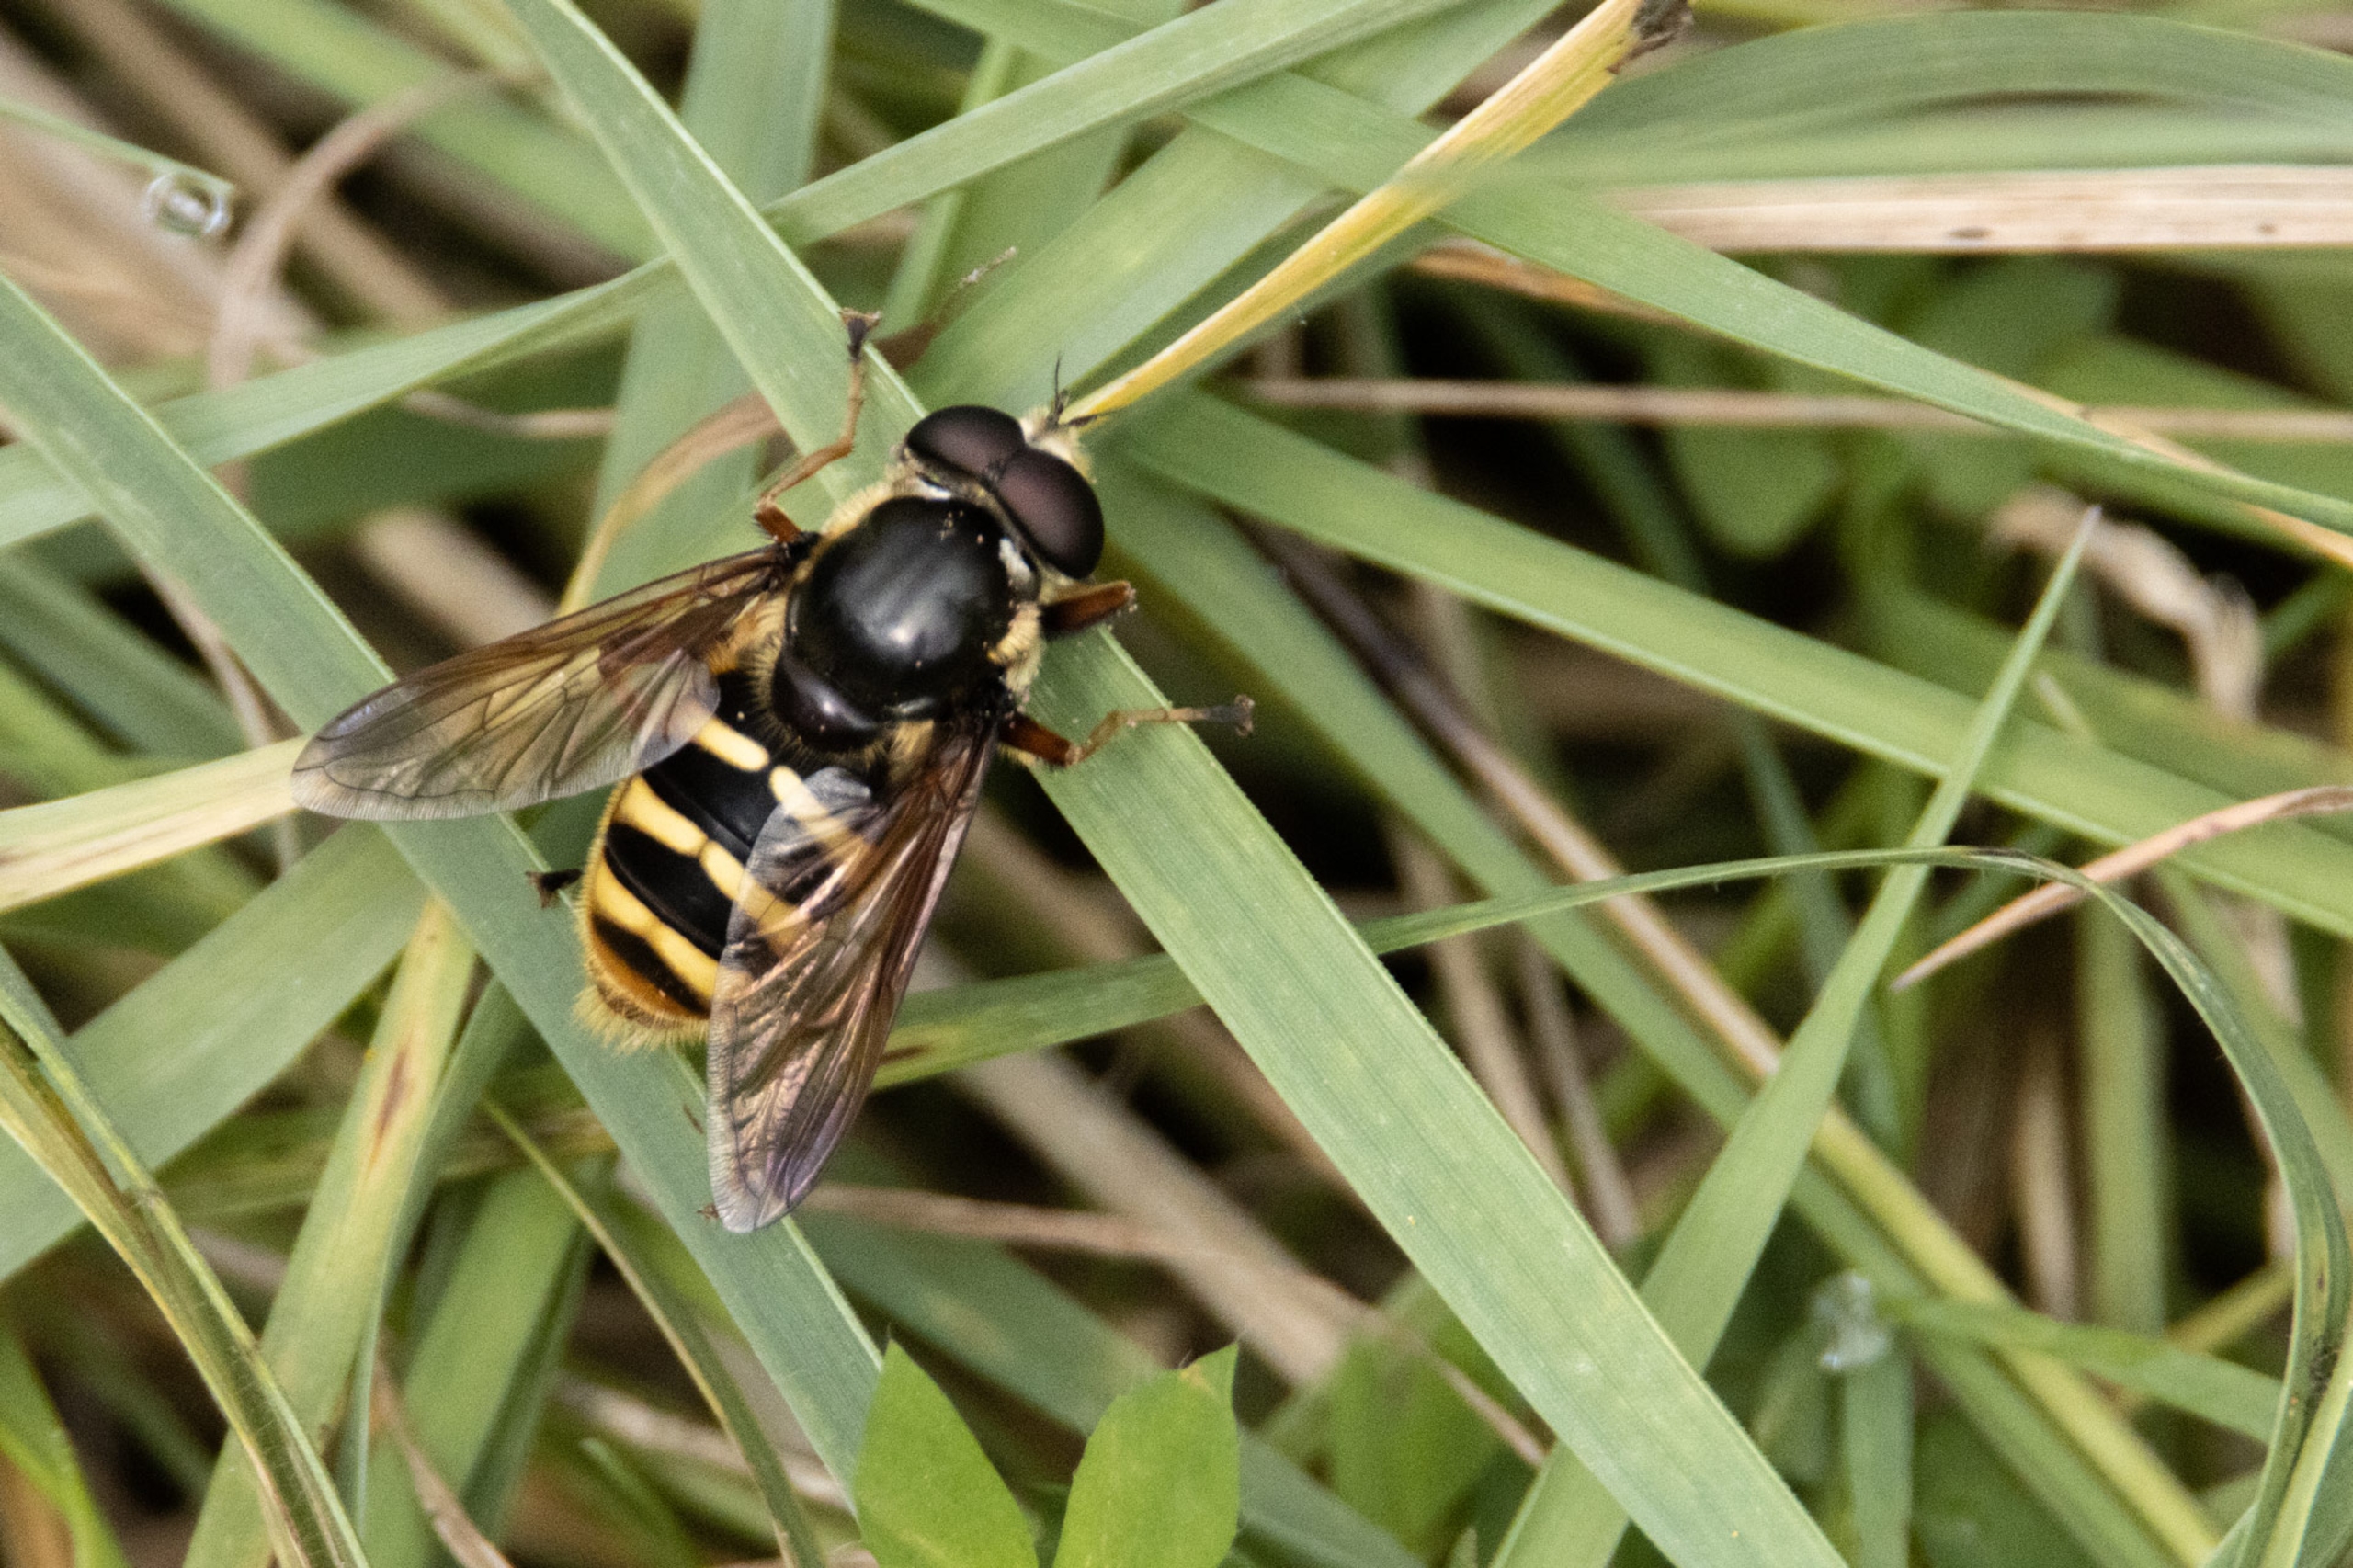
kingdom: Animalia
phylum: Arthropoda
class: Insecta
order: Diptera
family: Syrphidae
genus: Sericomyia
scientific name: Sericomyia silentis
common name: Tørve-silkesvirreflue
